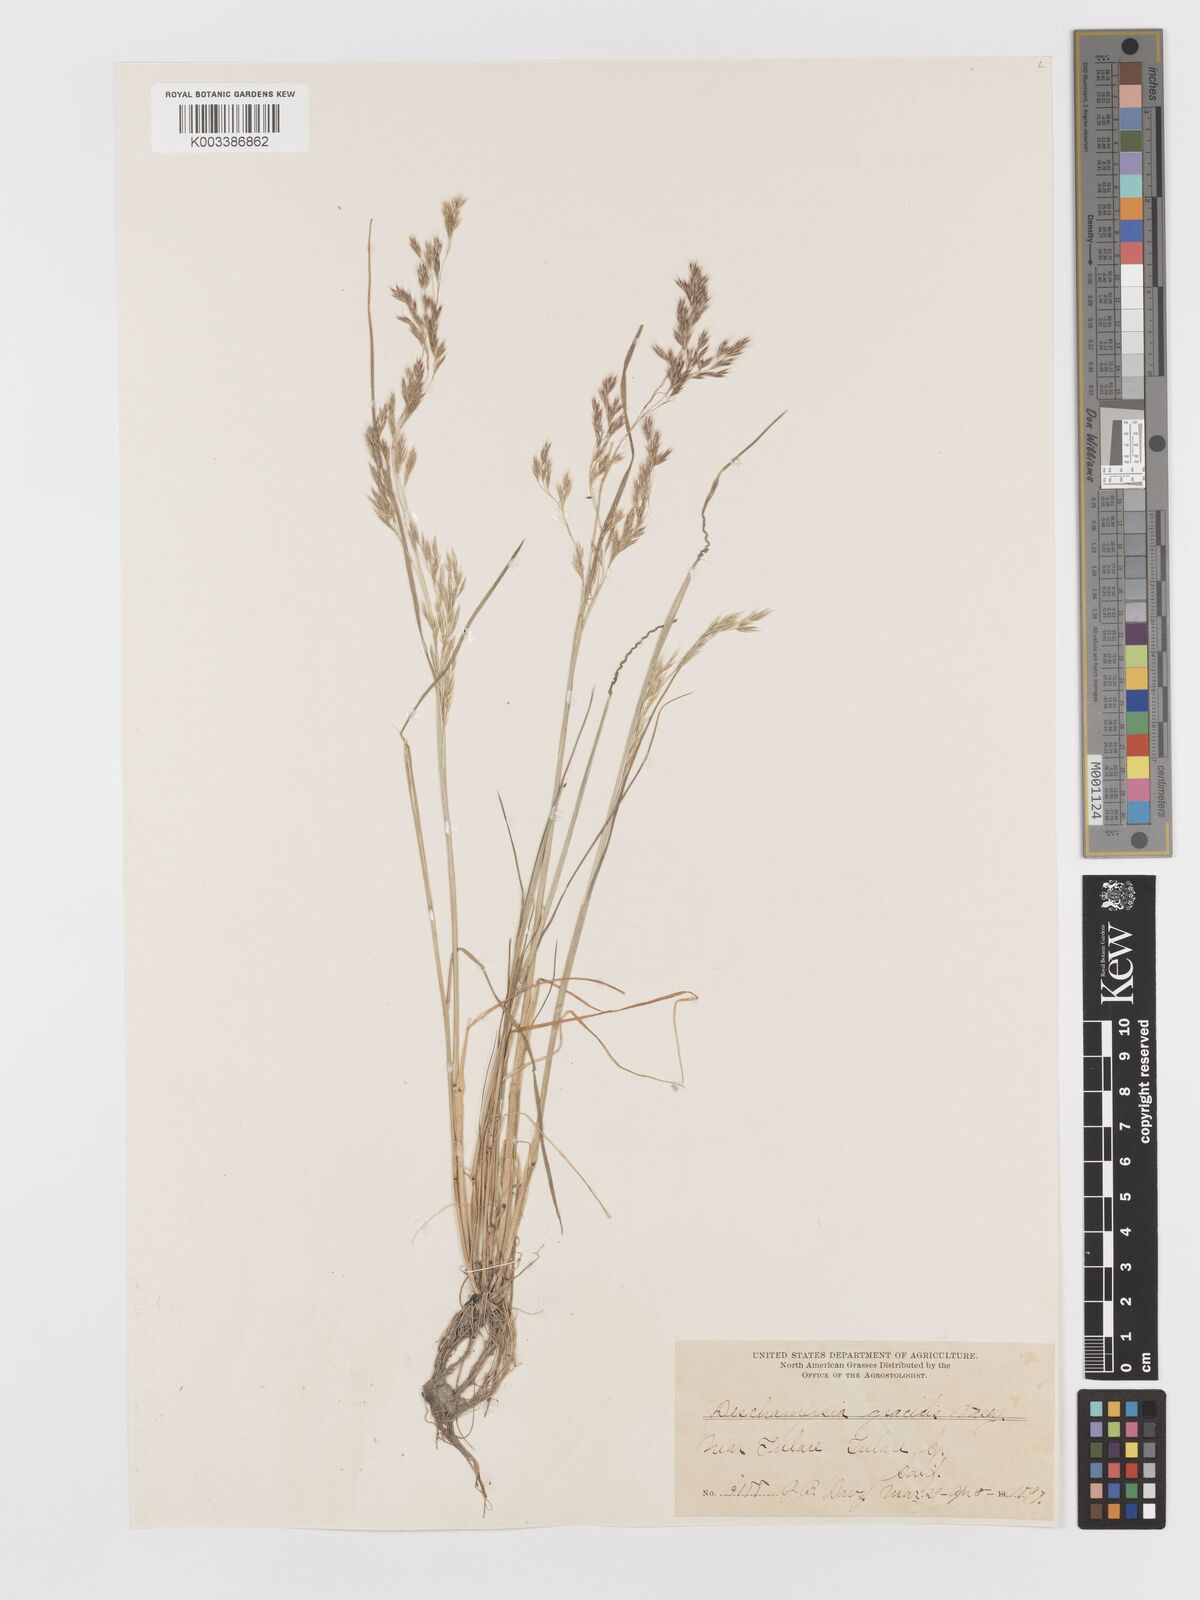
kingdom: Plantae
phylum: Tracheophyta
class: Liliopsida
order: Poales
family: Poaceae
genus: Deschampsia
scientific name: Deschampsia danthonioides
